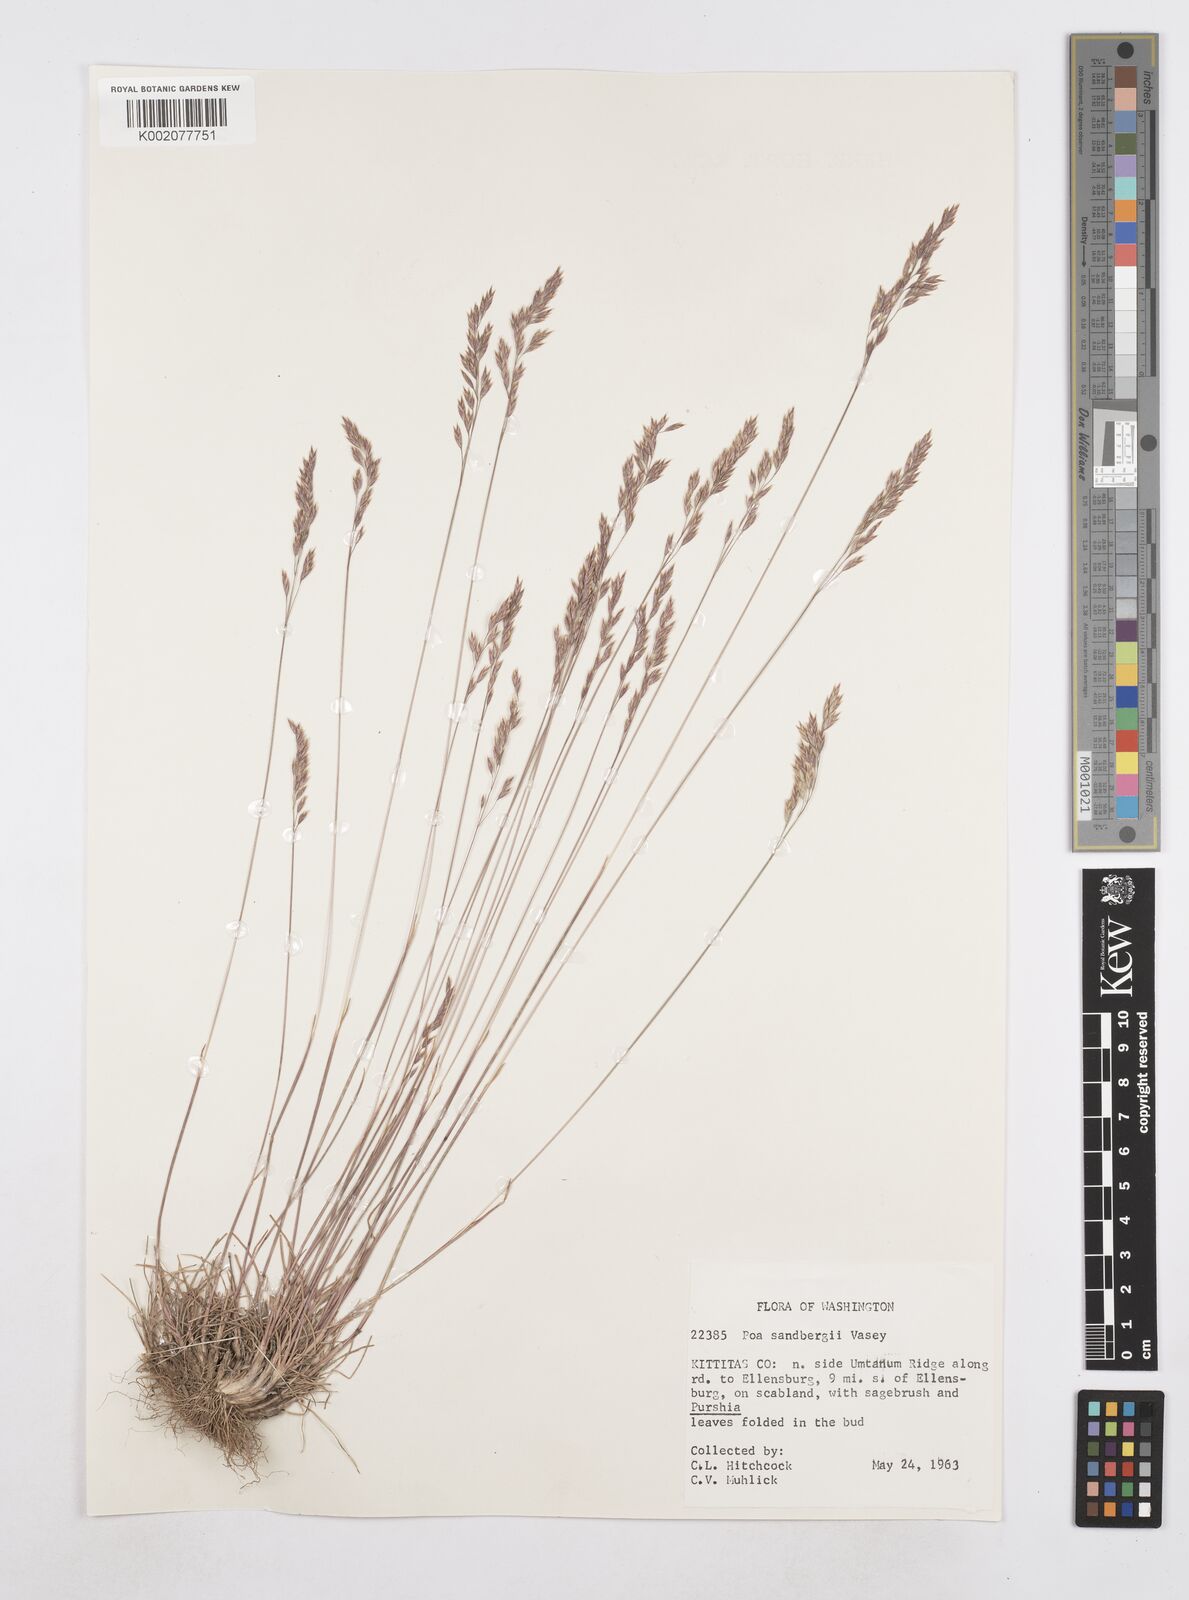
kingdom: Plantae
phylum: Tracheophyta
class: Liliopsida
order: Poales
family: Poaceae
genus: Poa
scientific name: Poa secunda
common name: Sandberg bluegrass
